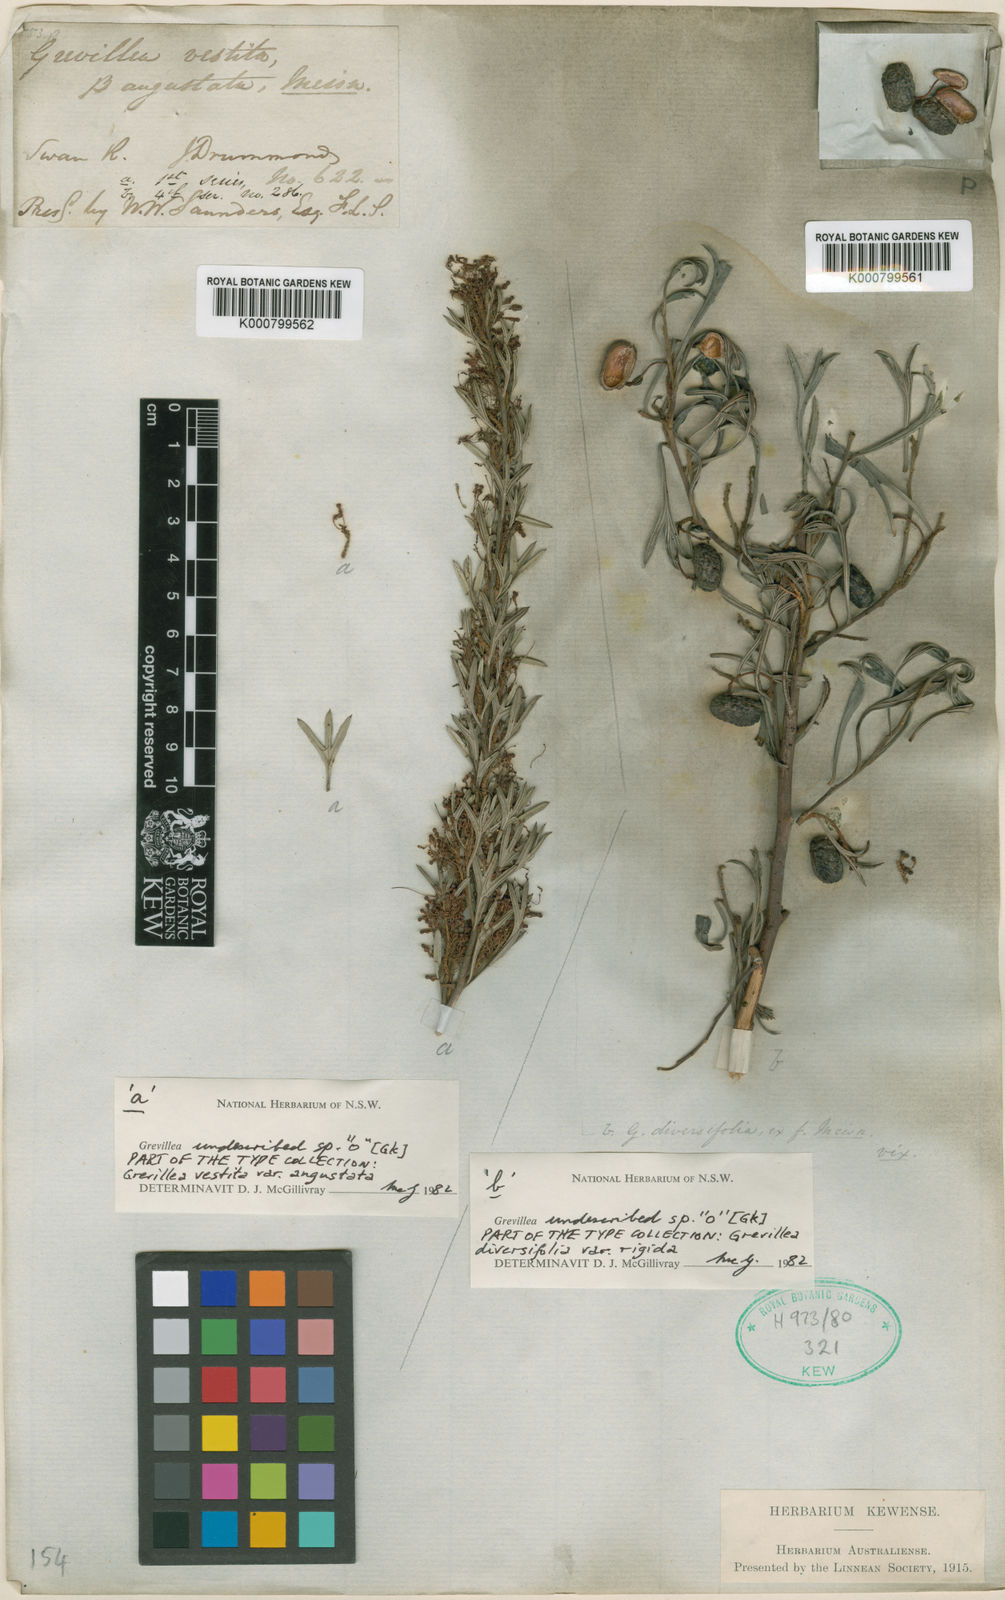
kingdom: Plantae
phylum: Tracheophyta
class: Magnoliopsida
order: Proteales
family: Proteaceae
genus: Grevillea
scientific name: Grevillea curviloba
